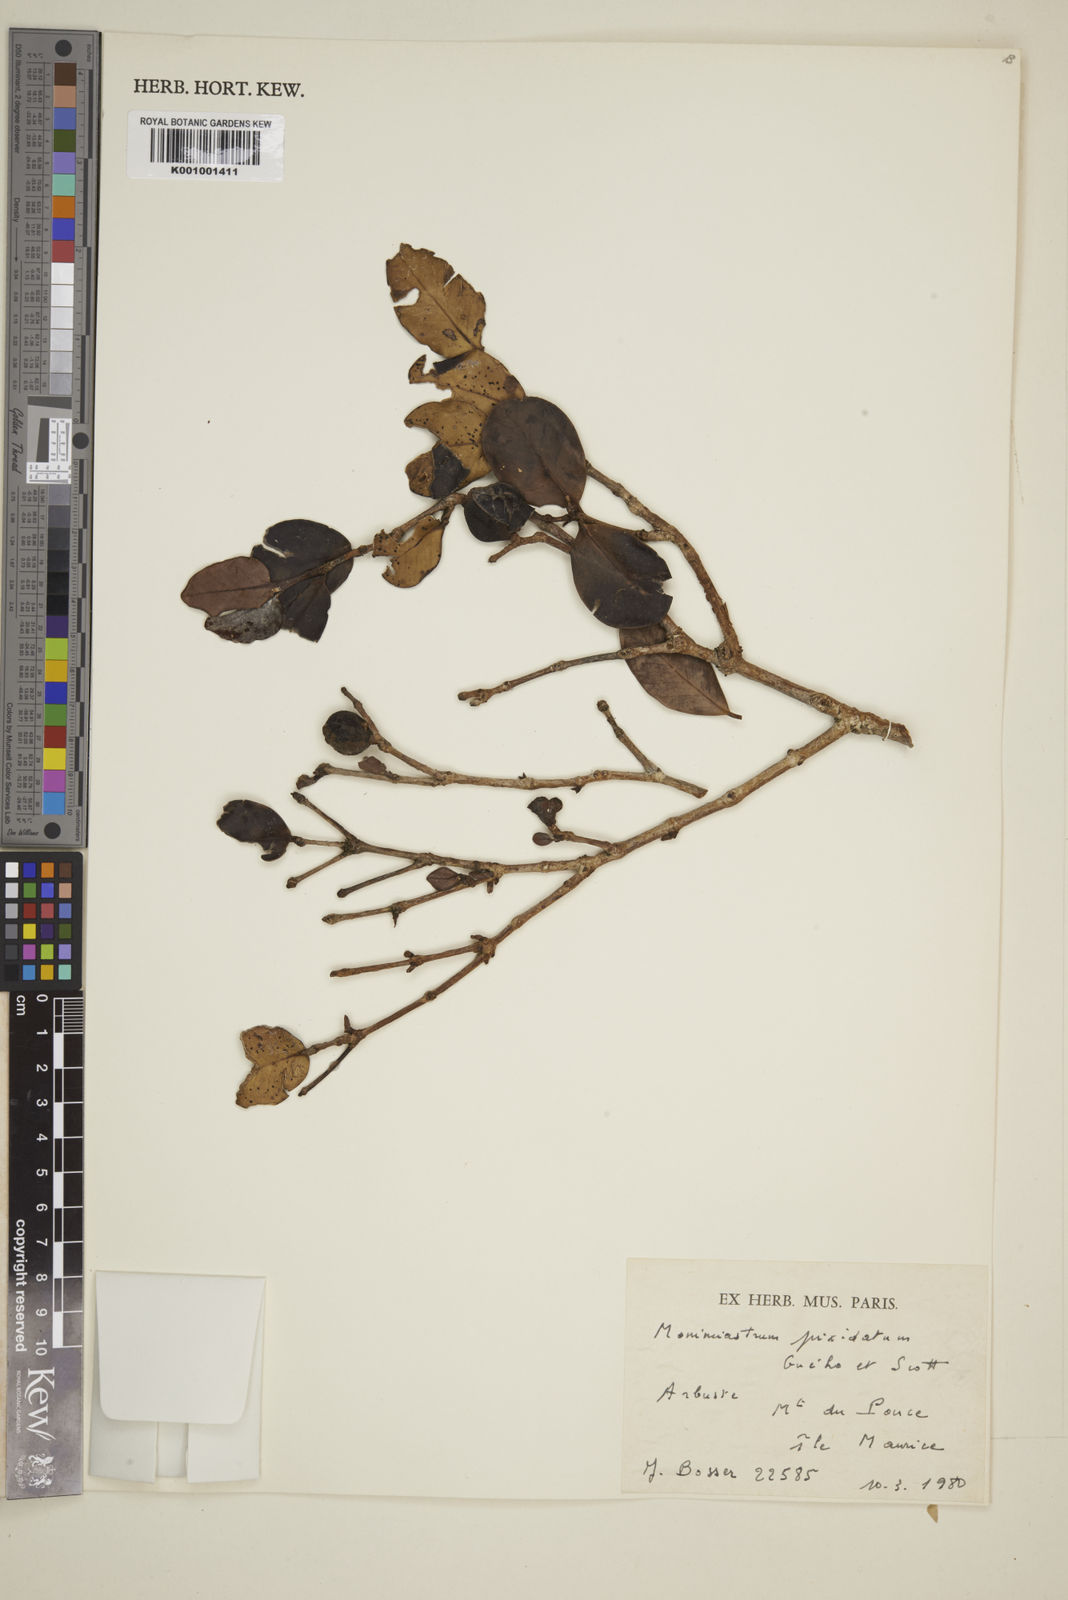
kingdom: Plantae
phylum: Tracheophyta
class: Magnoliopsida
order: Myrtales
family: Myrtaceae
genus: Eugenia
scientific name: Eugenia pyxidata
